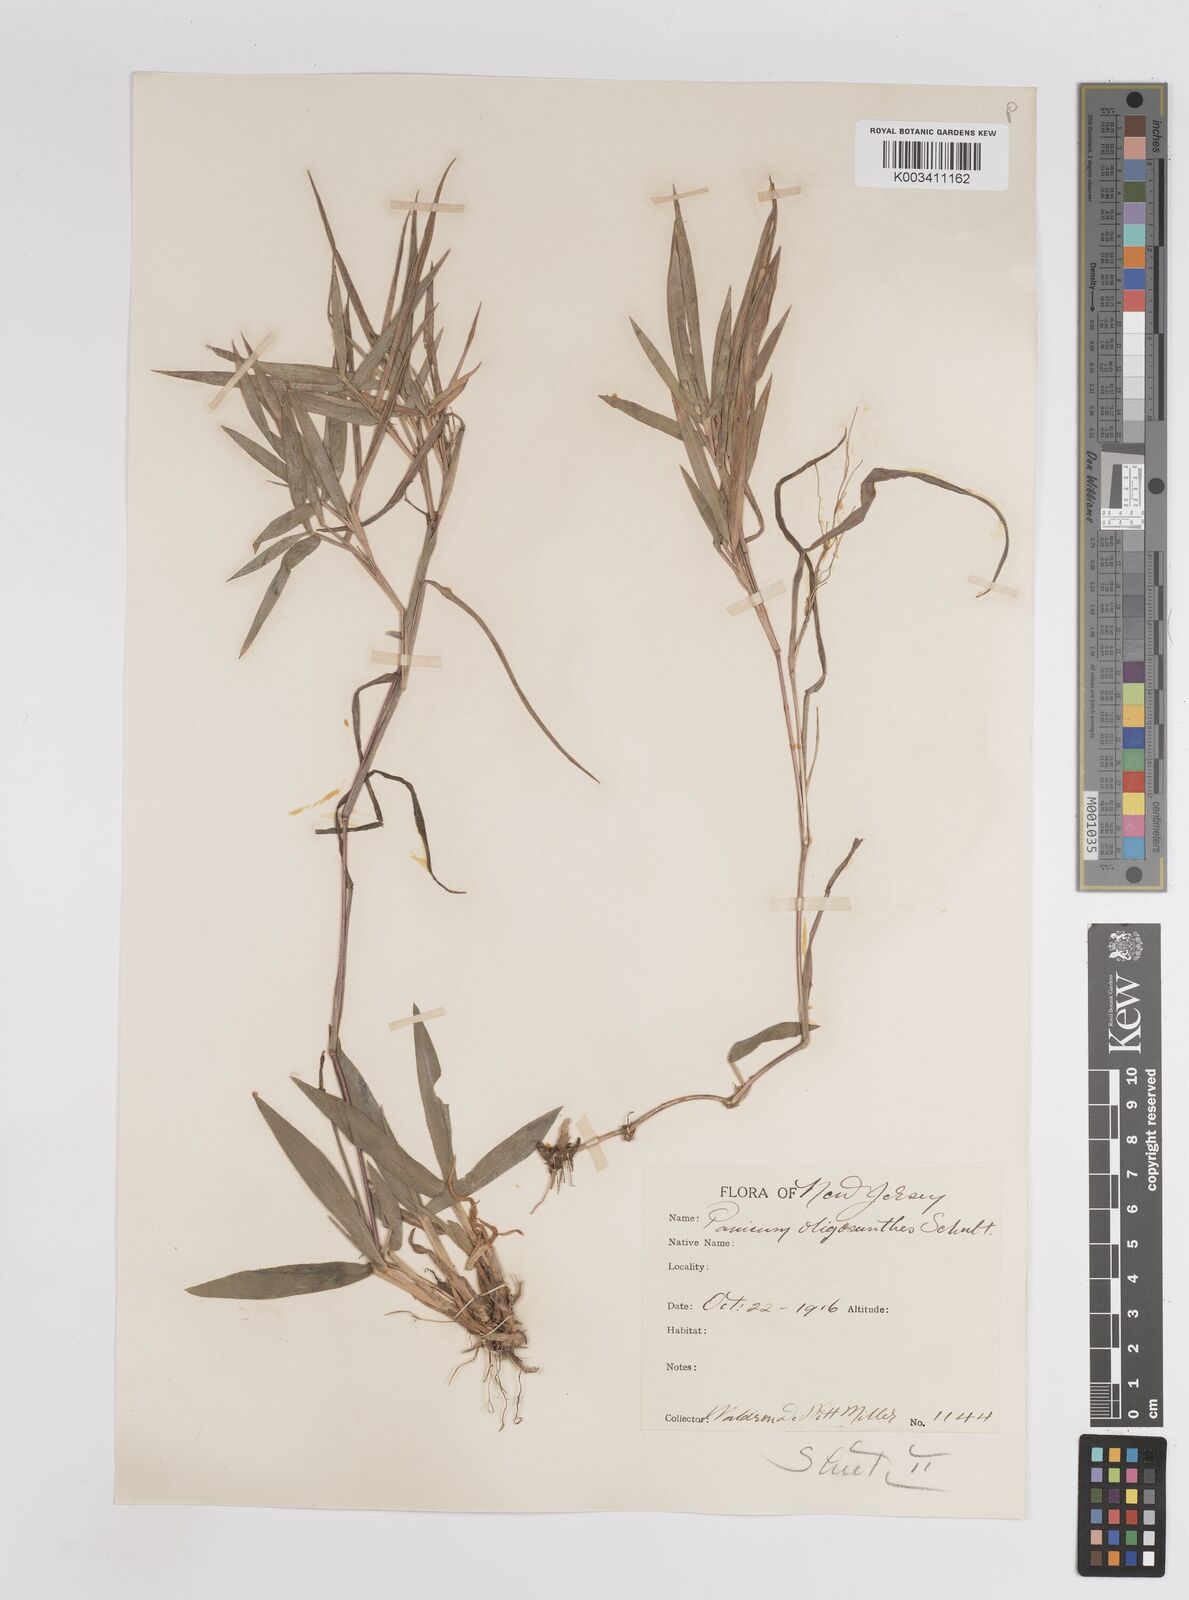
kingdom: Plantae
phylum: Tracheophyta
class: Liliopsida
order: Poales
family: Poaceae
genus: Dichanthelium
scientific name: Dichanthelium oligosanthes
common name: Few-anther obscuregrass
